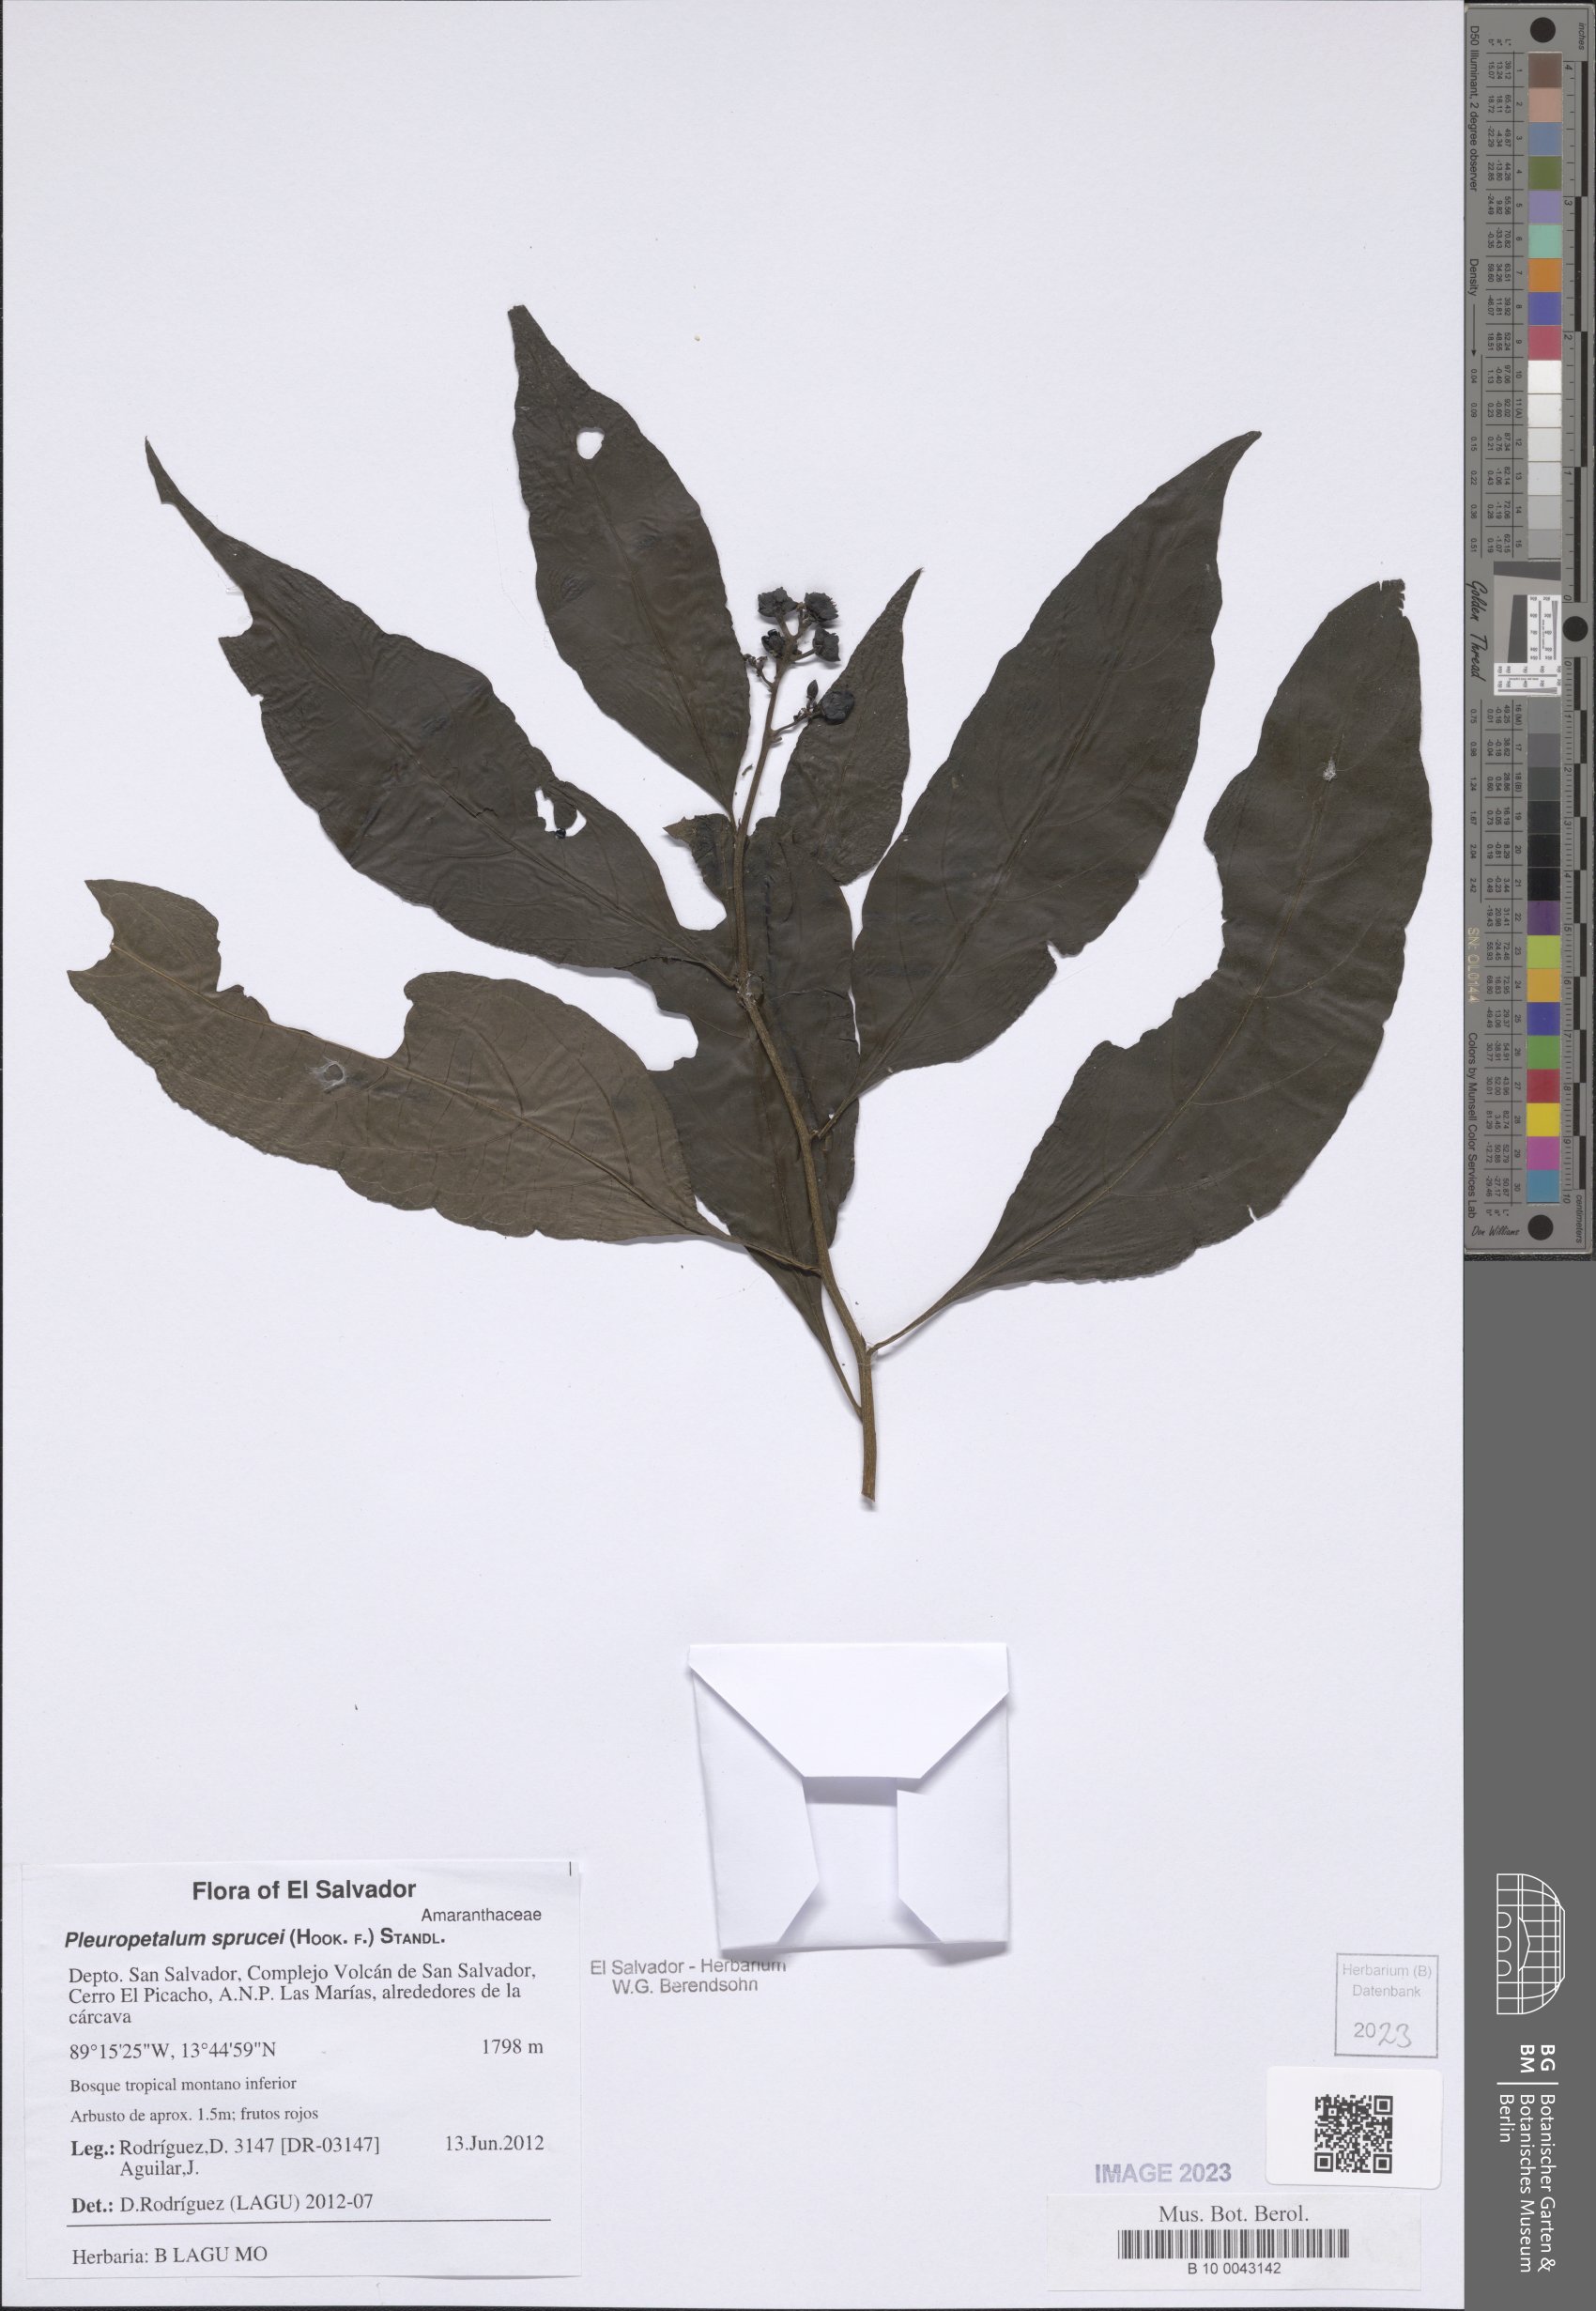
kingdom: Plantae
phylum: Tracheophyta
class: Magnoliopsida
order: Caryophyllales
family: Amaranthaceae
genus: Pleuropetalum
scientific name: Pleuropetalum sprucei
